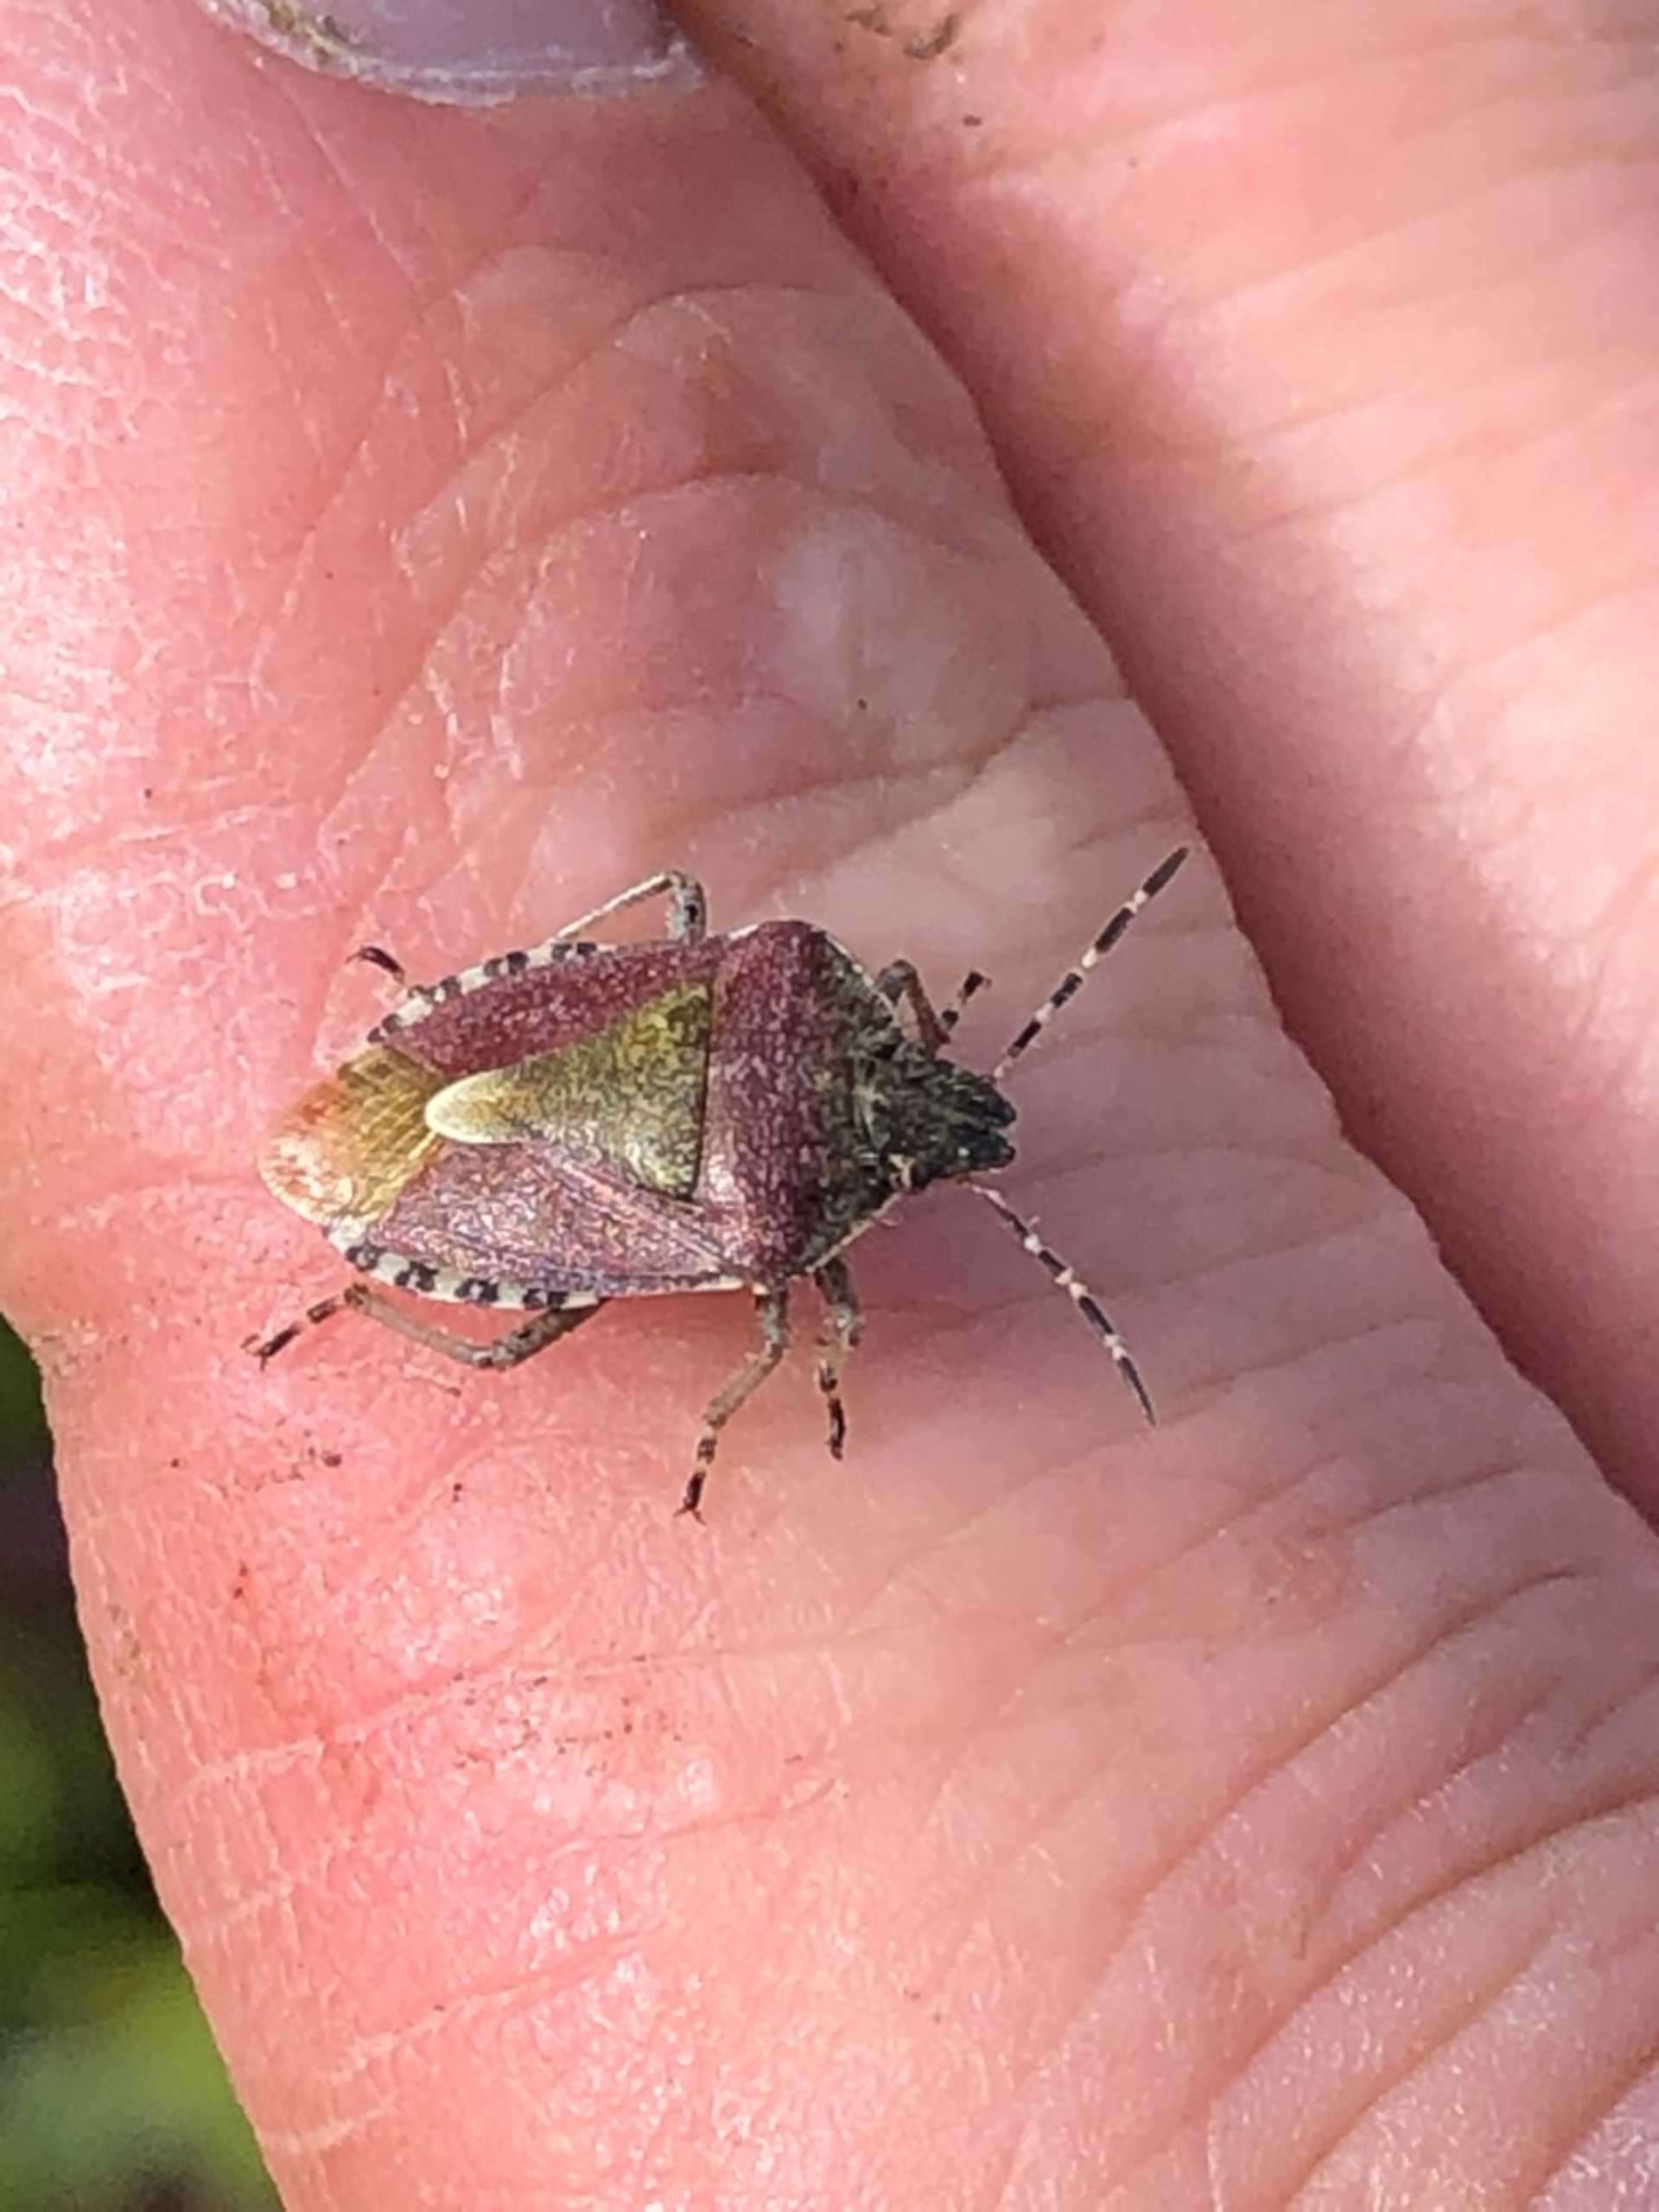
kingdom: Animalia
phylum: Arthropoda
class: Insecta
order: Hemiptera
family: Pentatomidae
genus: Dolycoris
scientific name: Dolycoris baccarum
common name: Almindelig bærtæge
